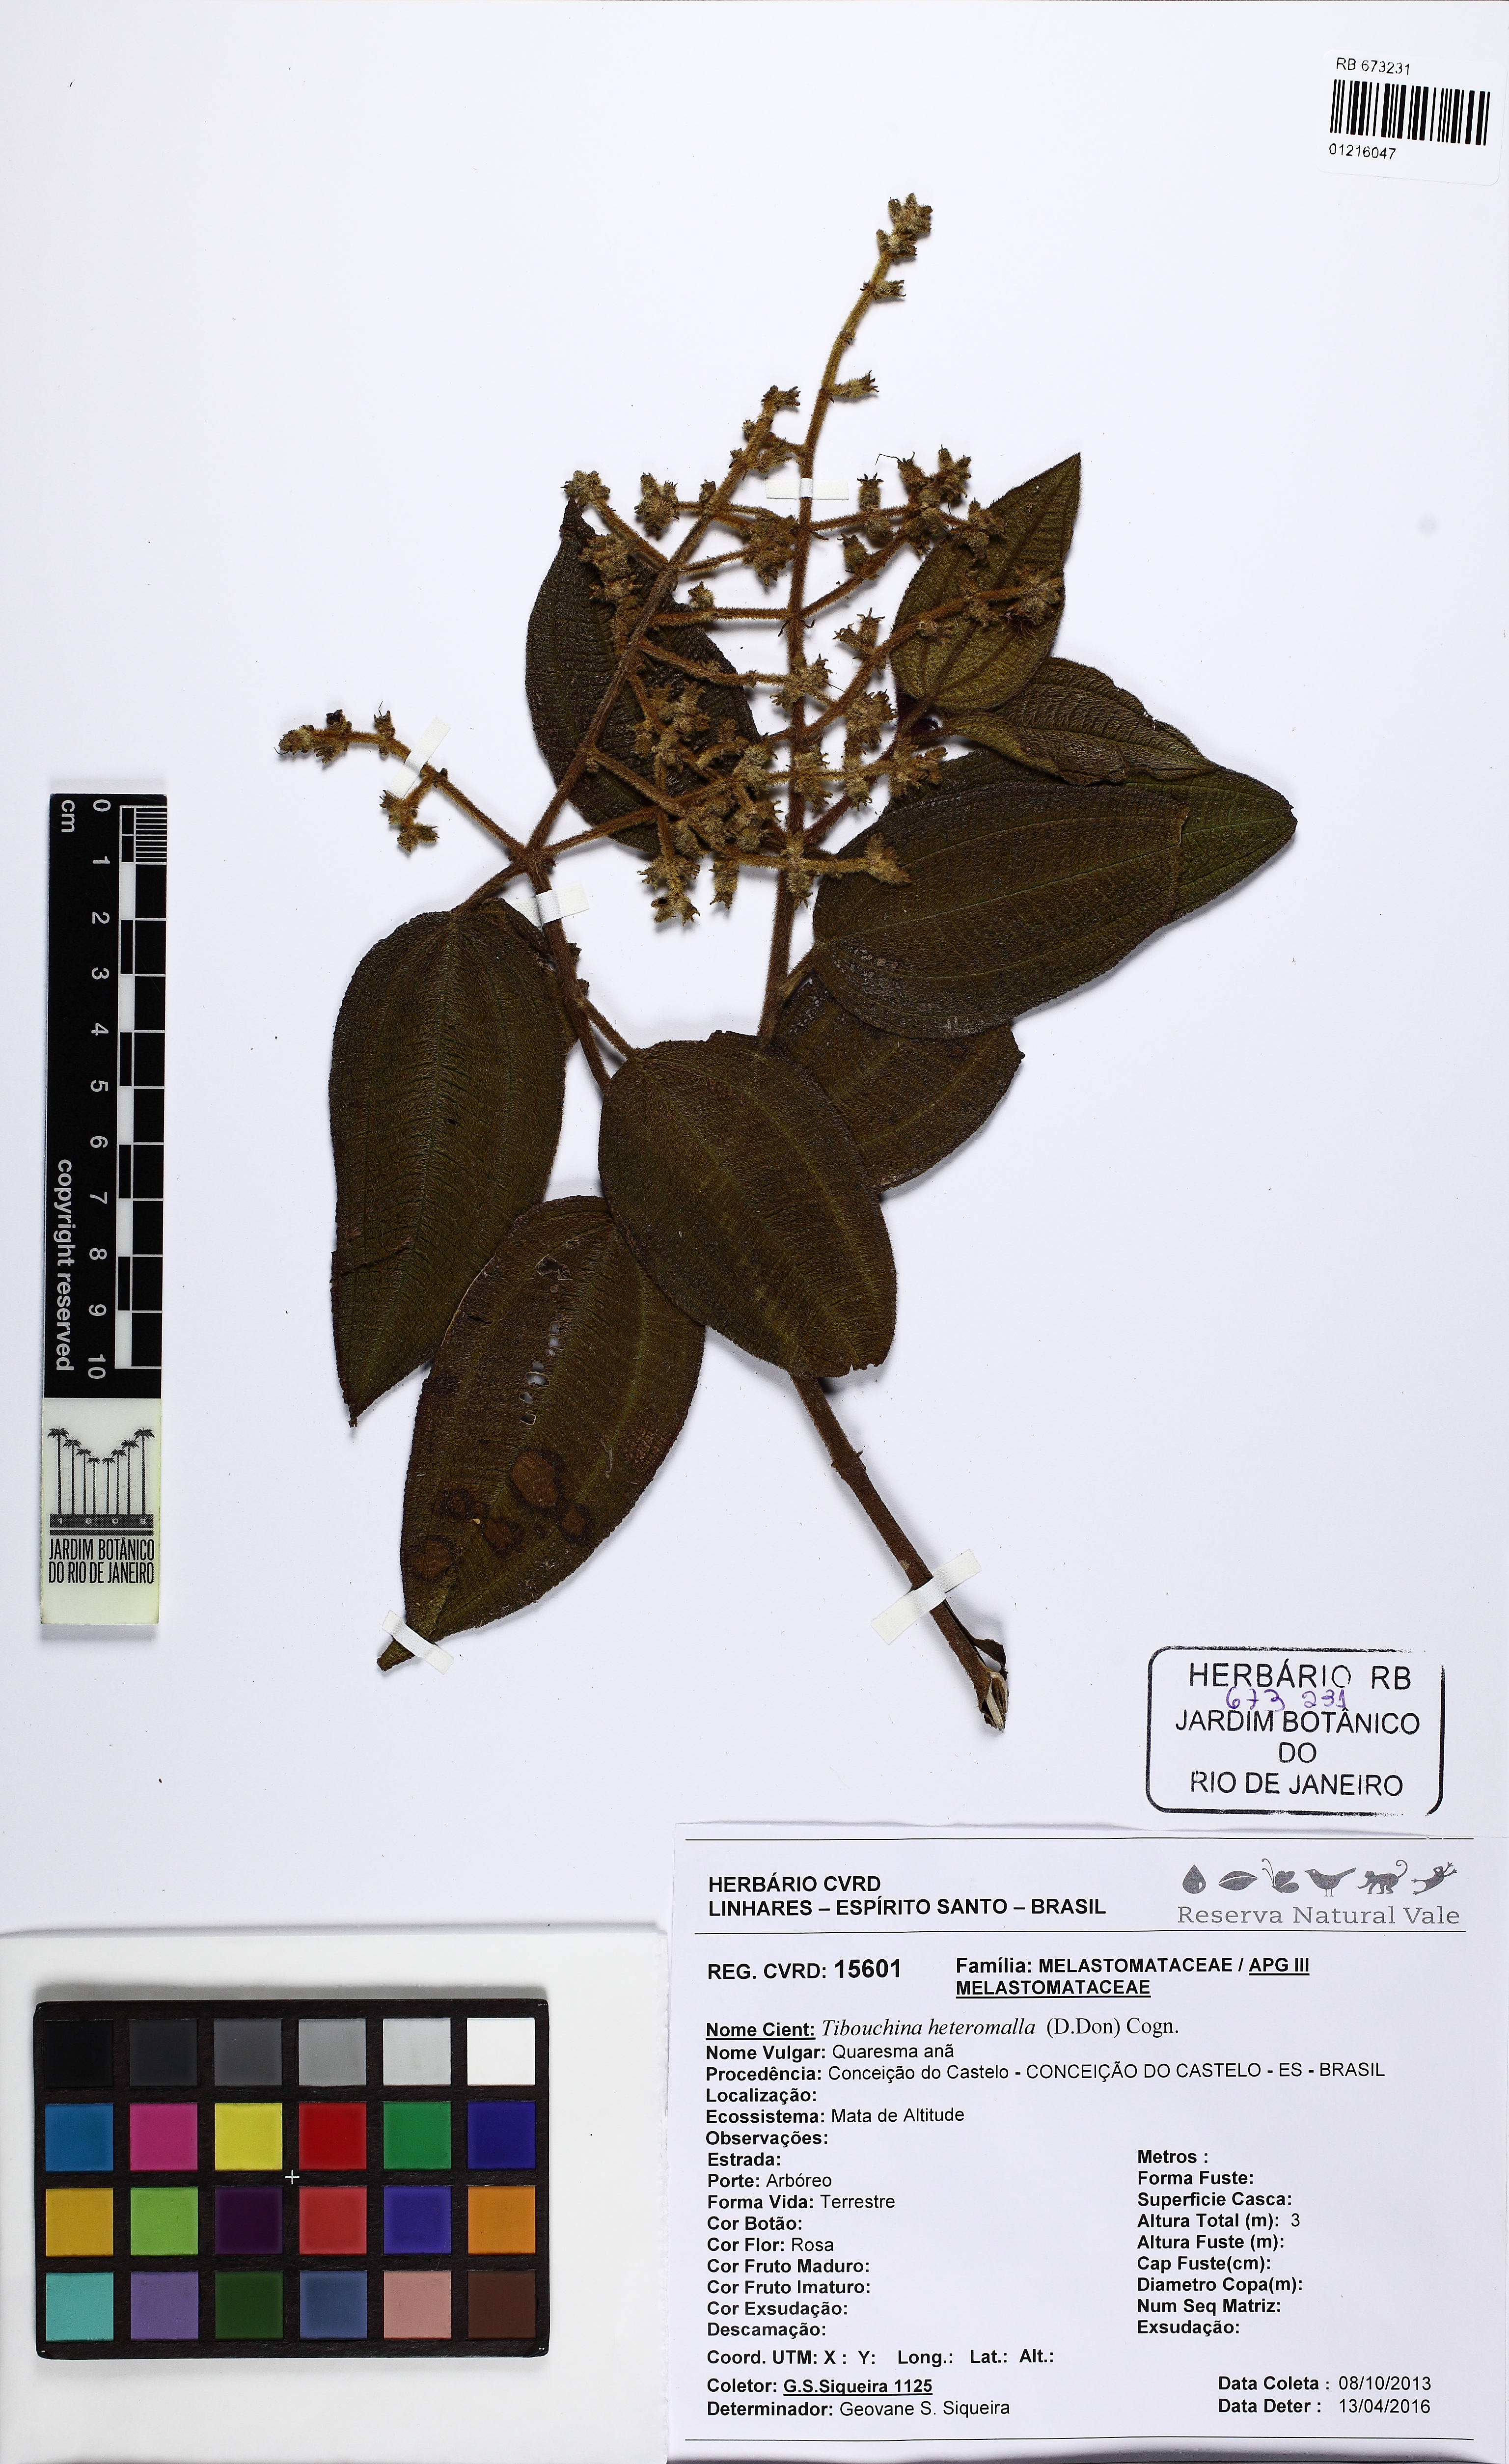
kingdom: Plantae
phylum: Tracheophyta
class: Magnoliopsida
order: Myrtales
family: Melastomataceae
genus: Pleroma
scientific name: Pleroma heteromallum
